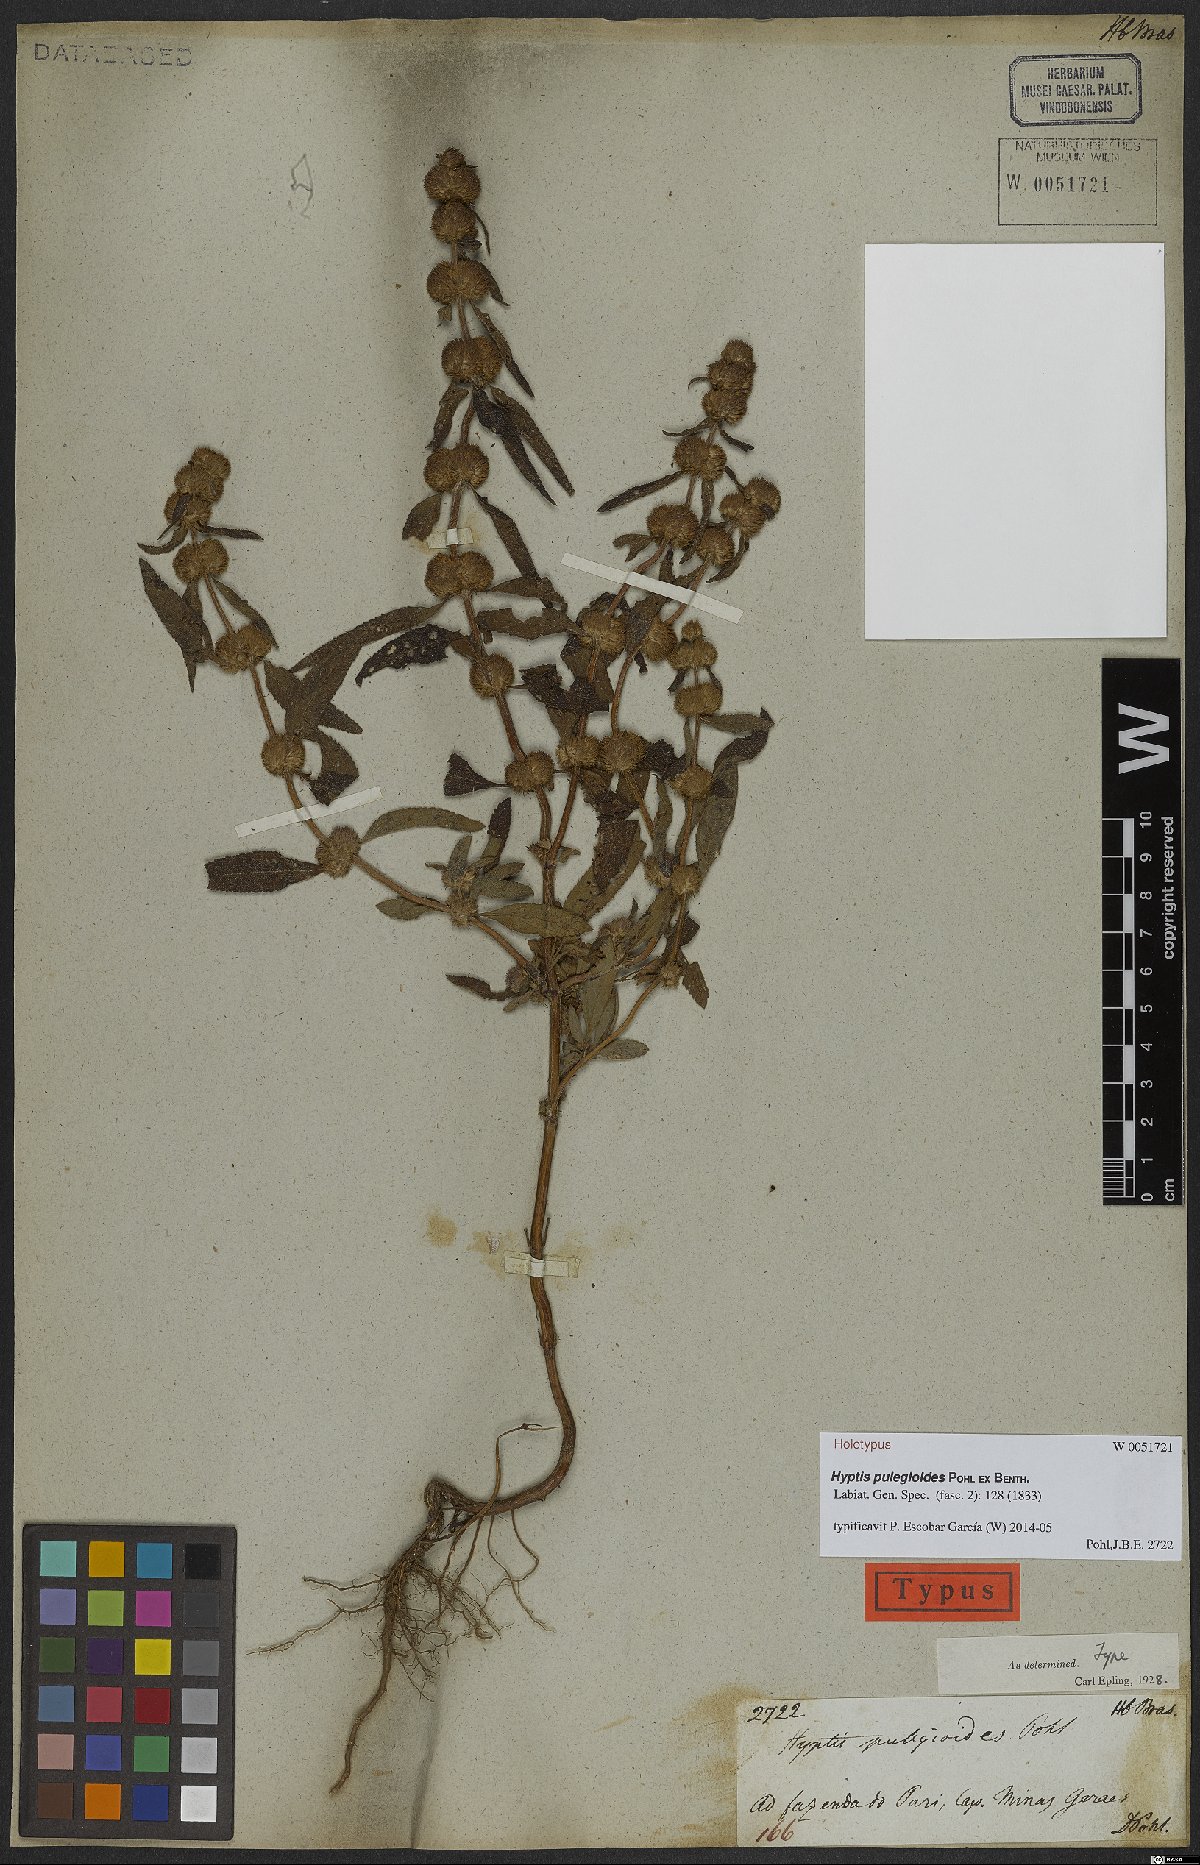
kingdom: Plantae
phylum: Tracheophyta
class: Magnoliopsida
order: Lamiales
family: Lamiaceae
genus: Hyptis
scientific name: Hyptis pulegioides
